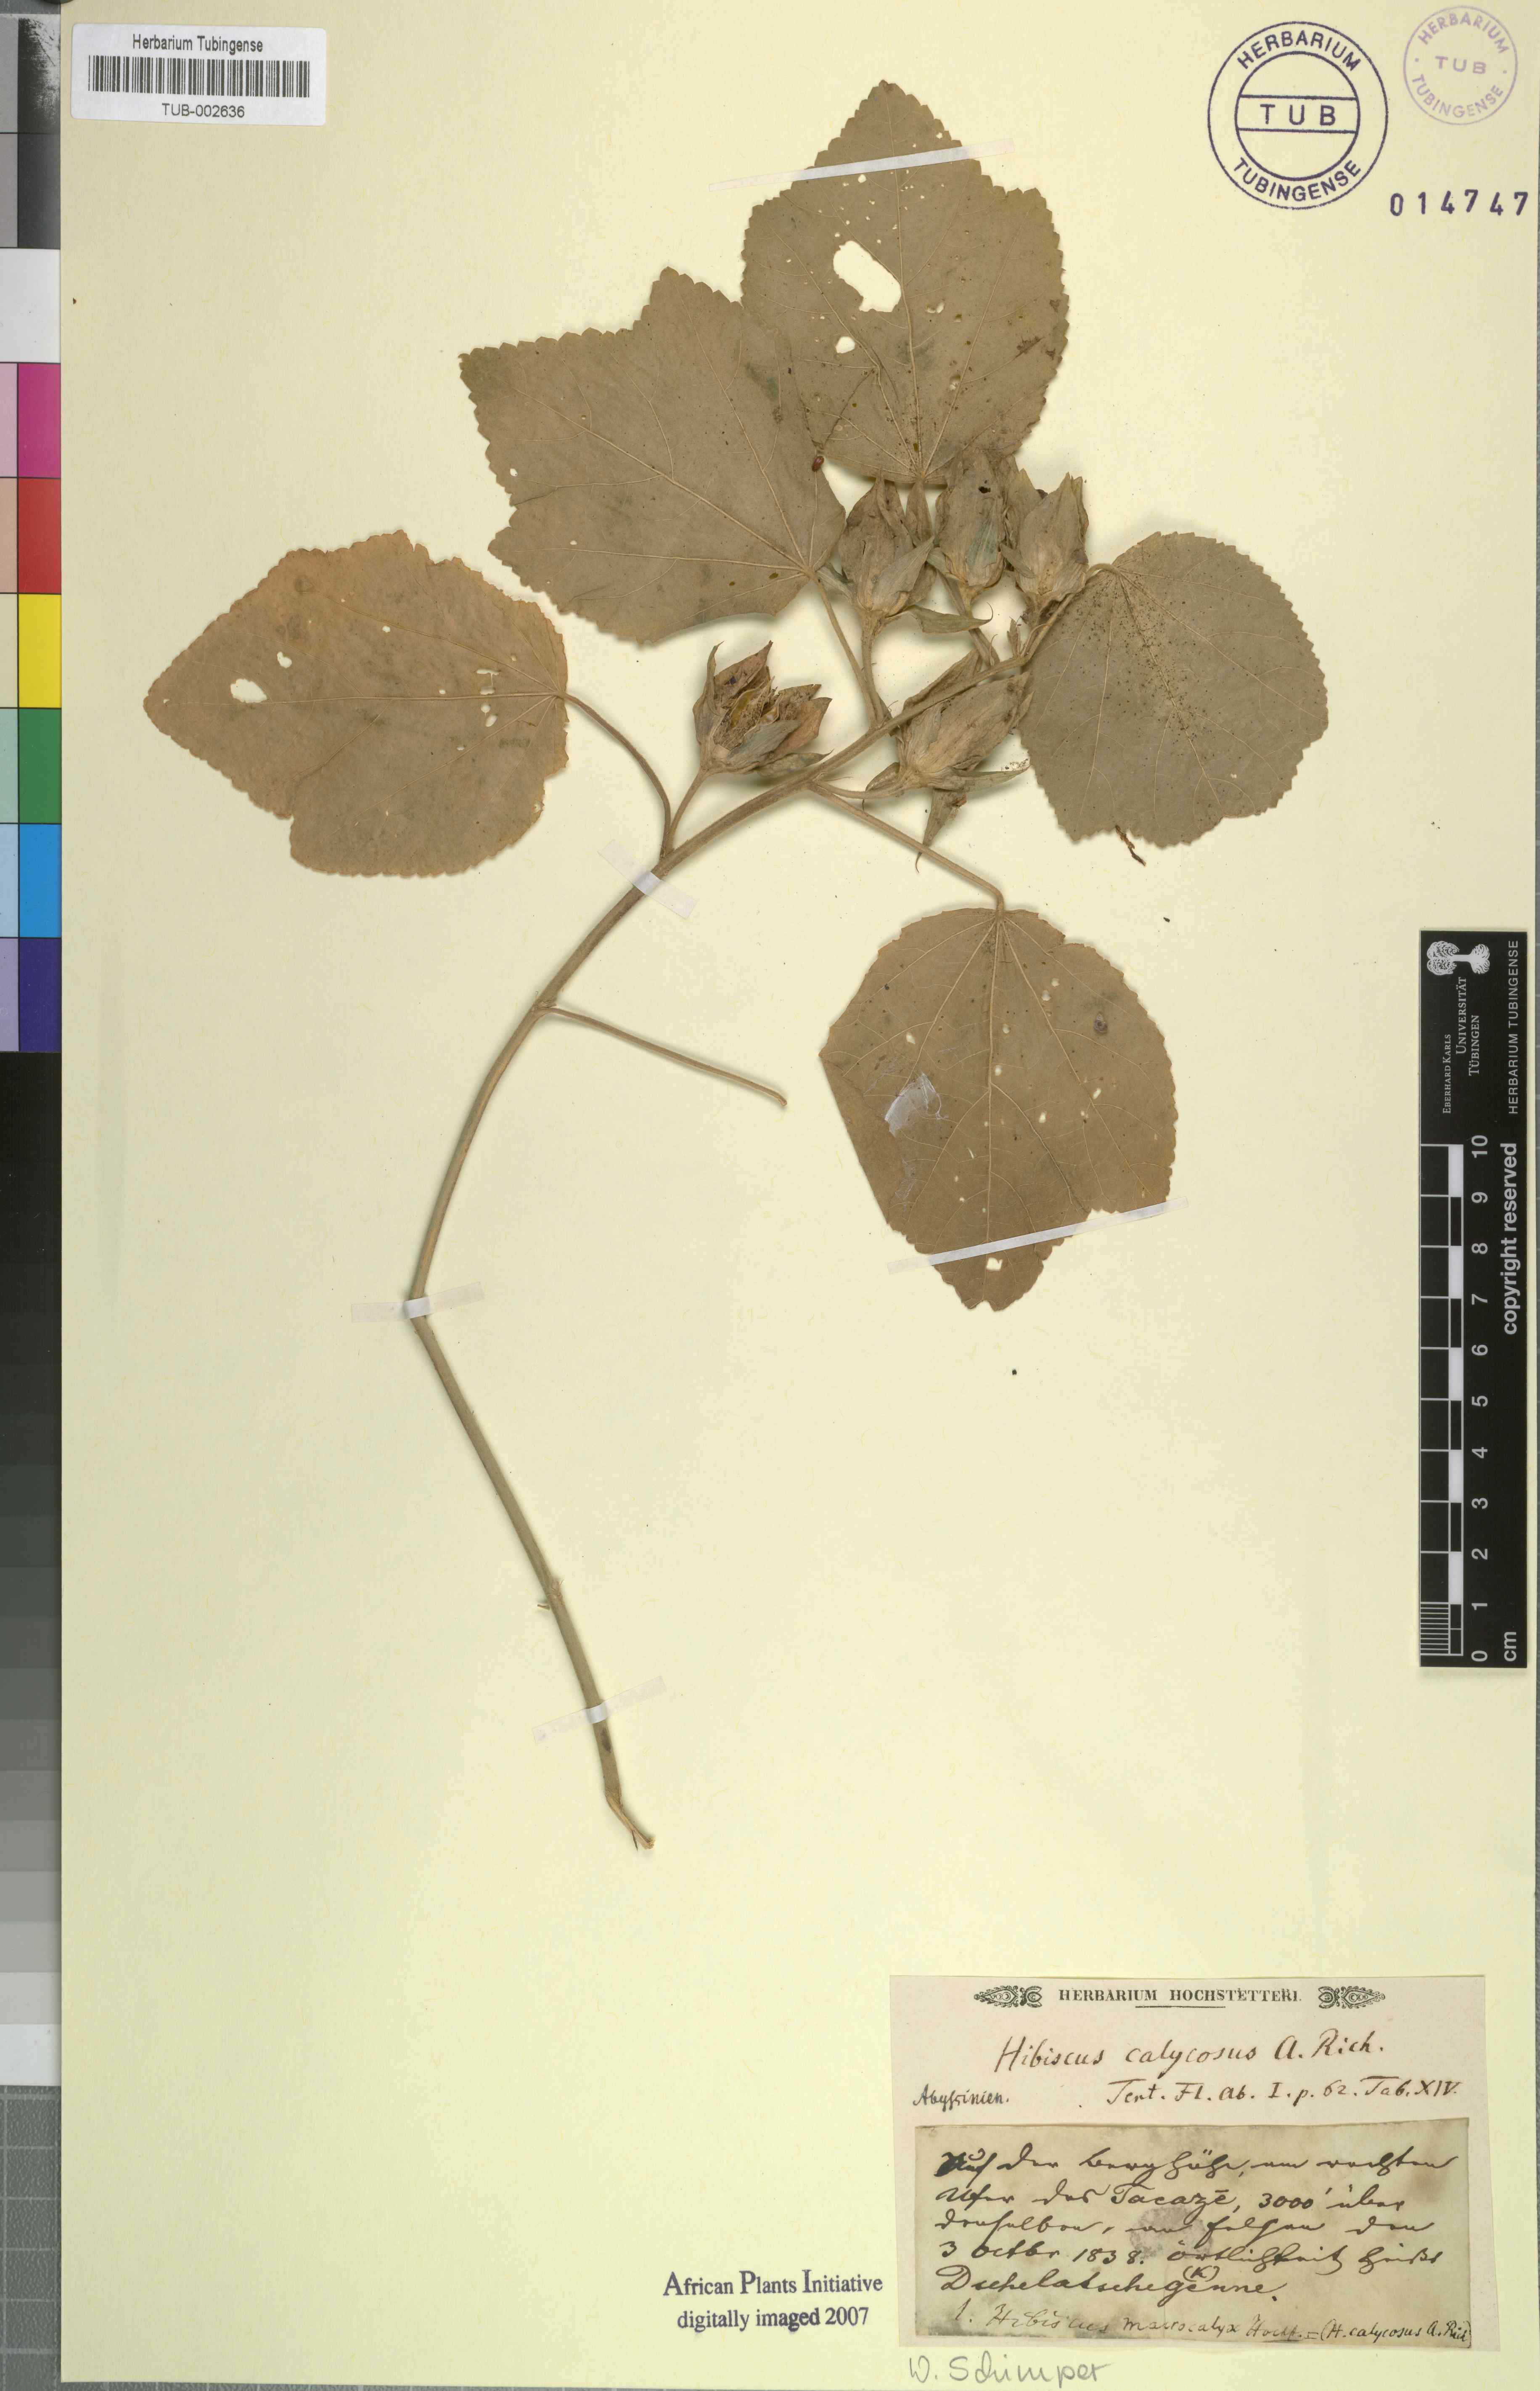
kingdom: Plantae
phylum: Tracheophyta
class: Magnoliopsida
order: Malvales
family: Malvaceae
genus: Hibiscus
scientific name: Hibiscus calyphyllus
